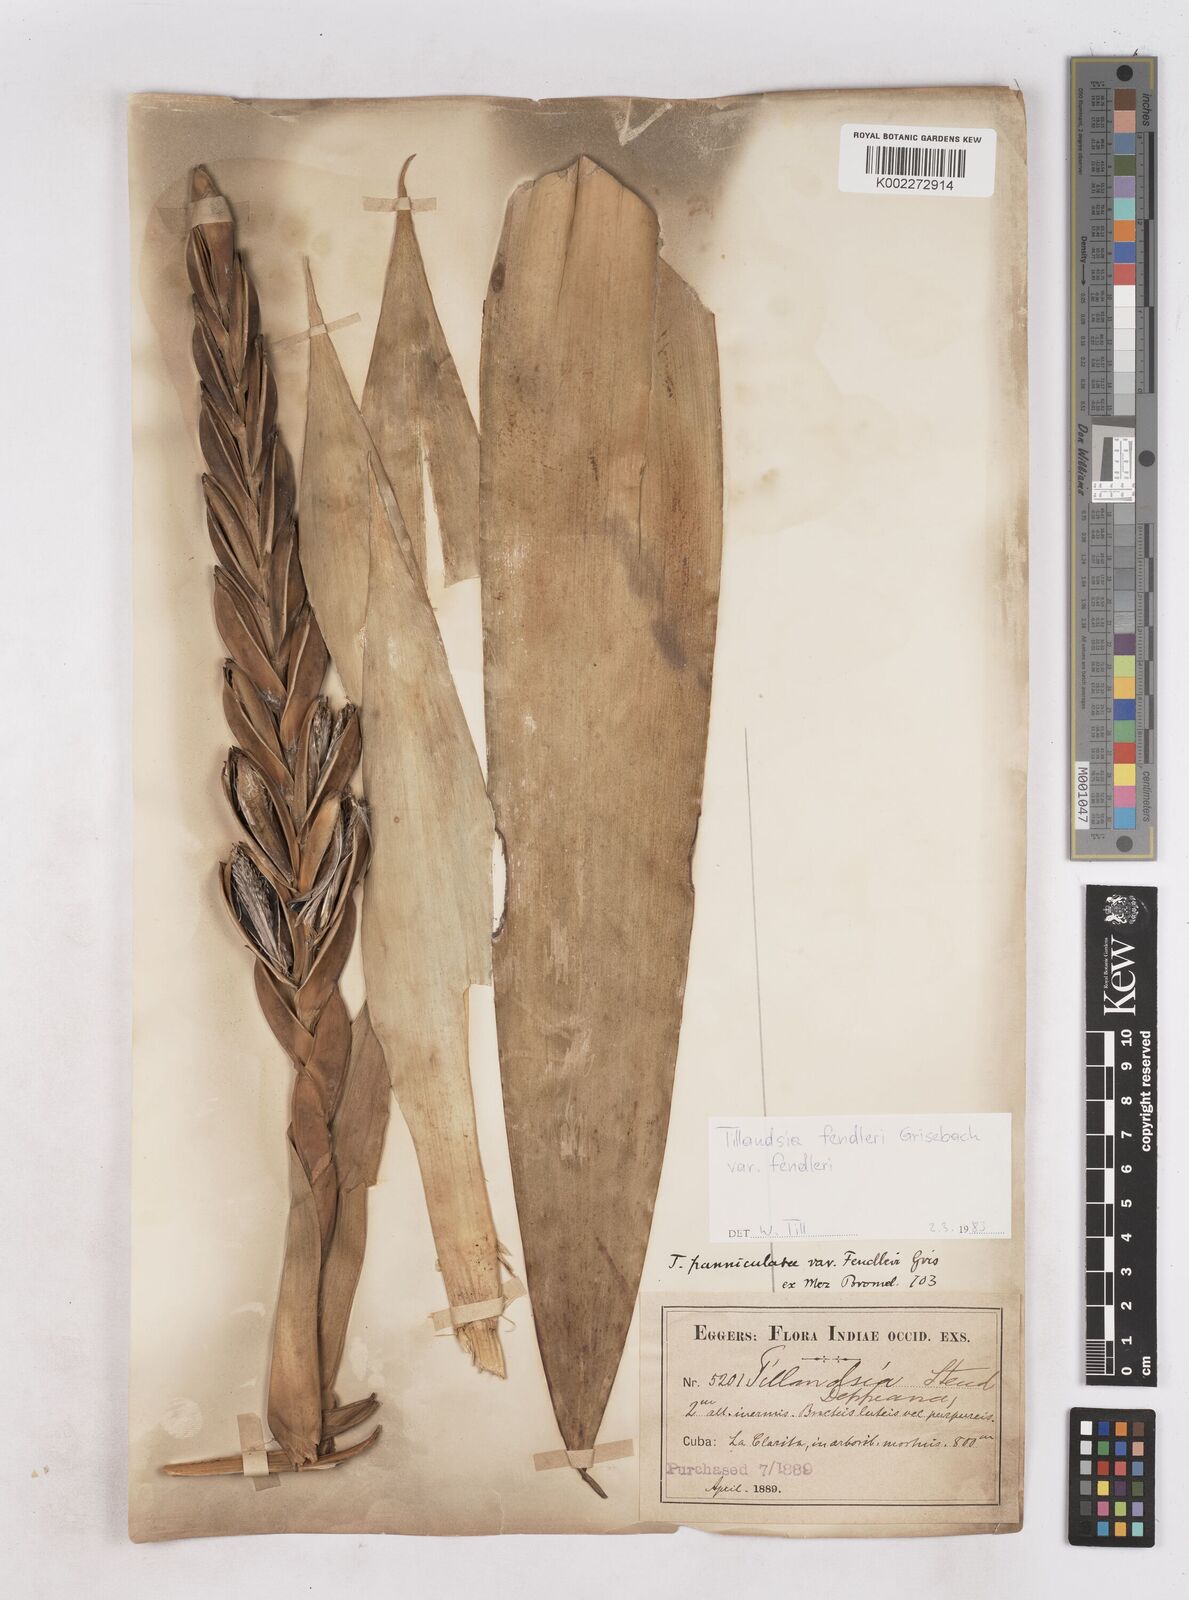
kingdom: Plantae
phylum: Tracheophyta
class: Liliopsida
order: Poales
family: Bromeliaceae
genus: Tillandsia
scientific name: Tillandsia fendleri
